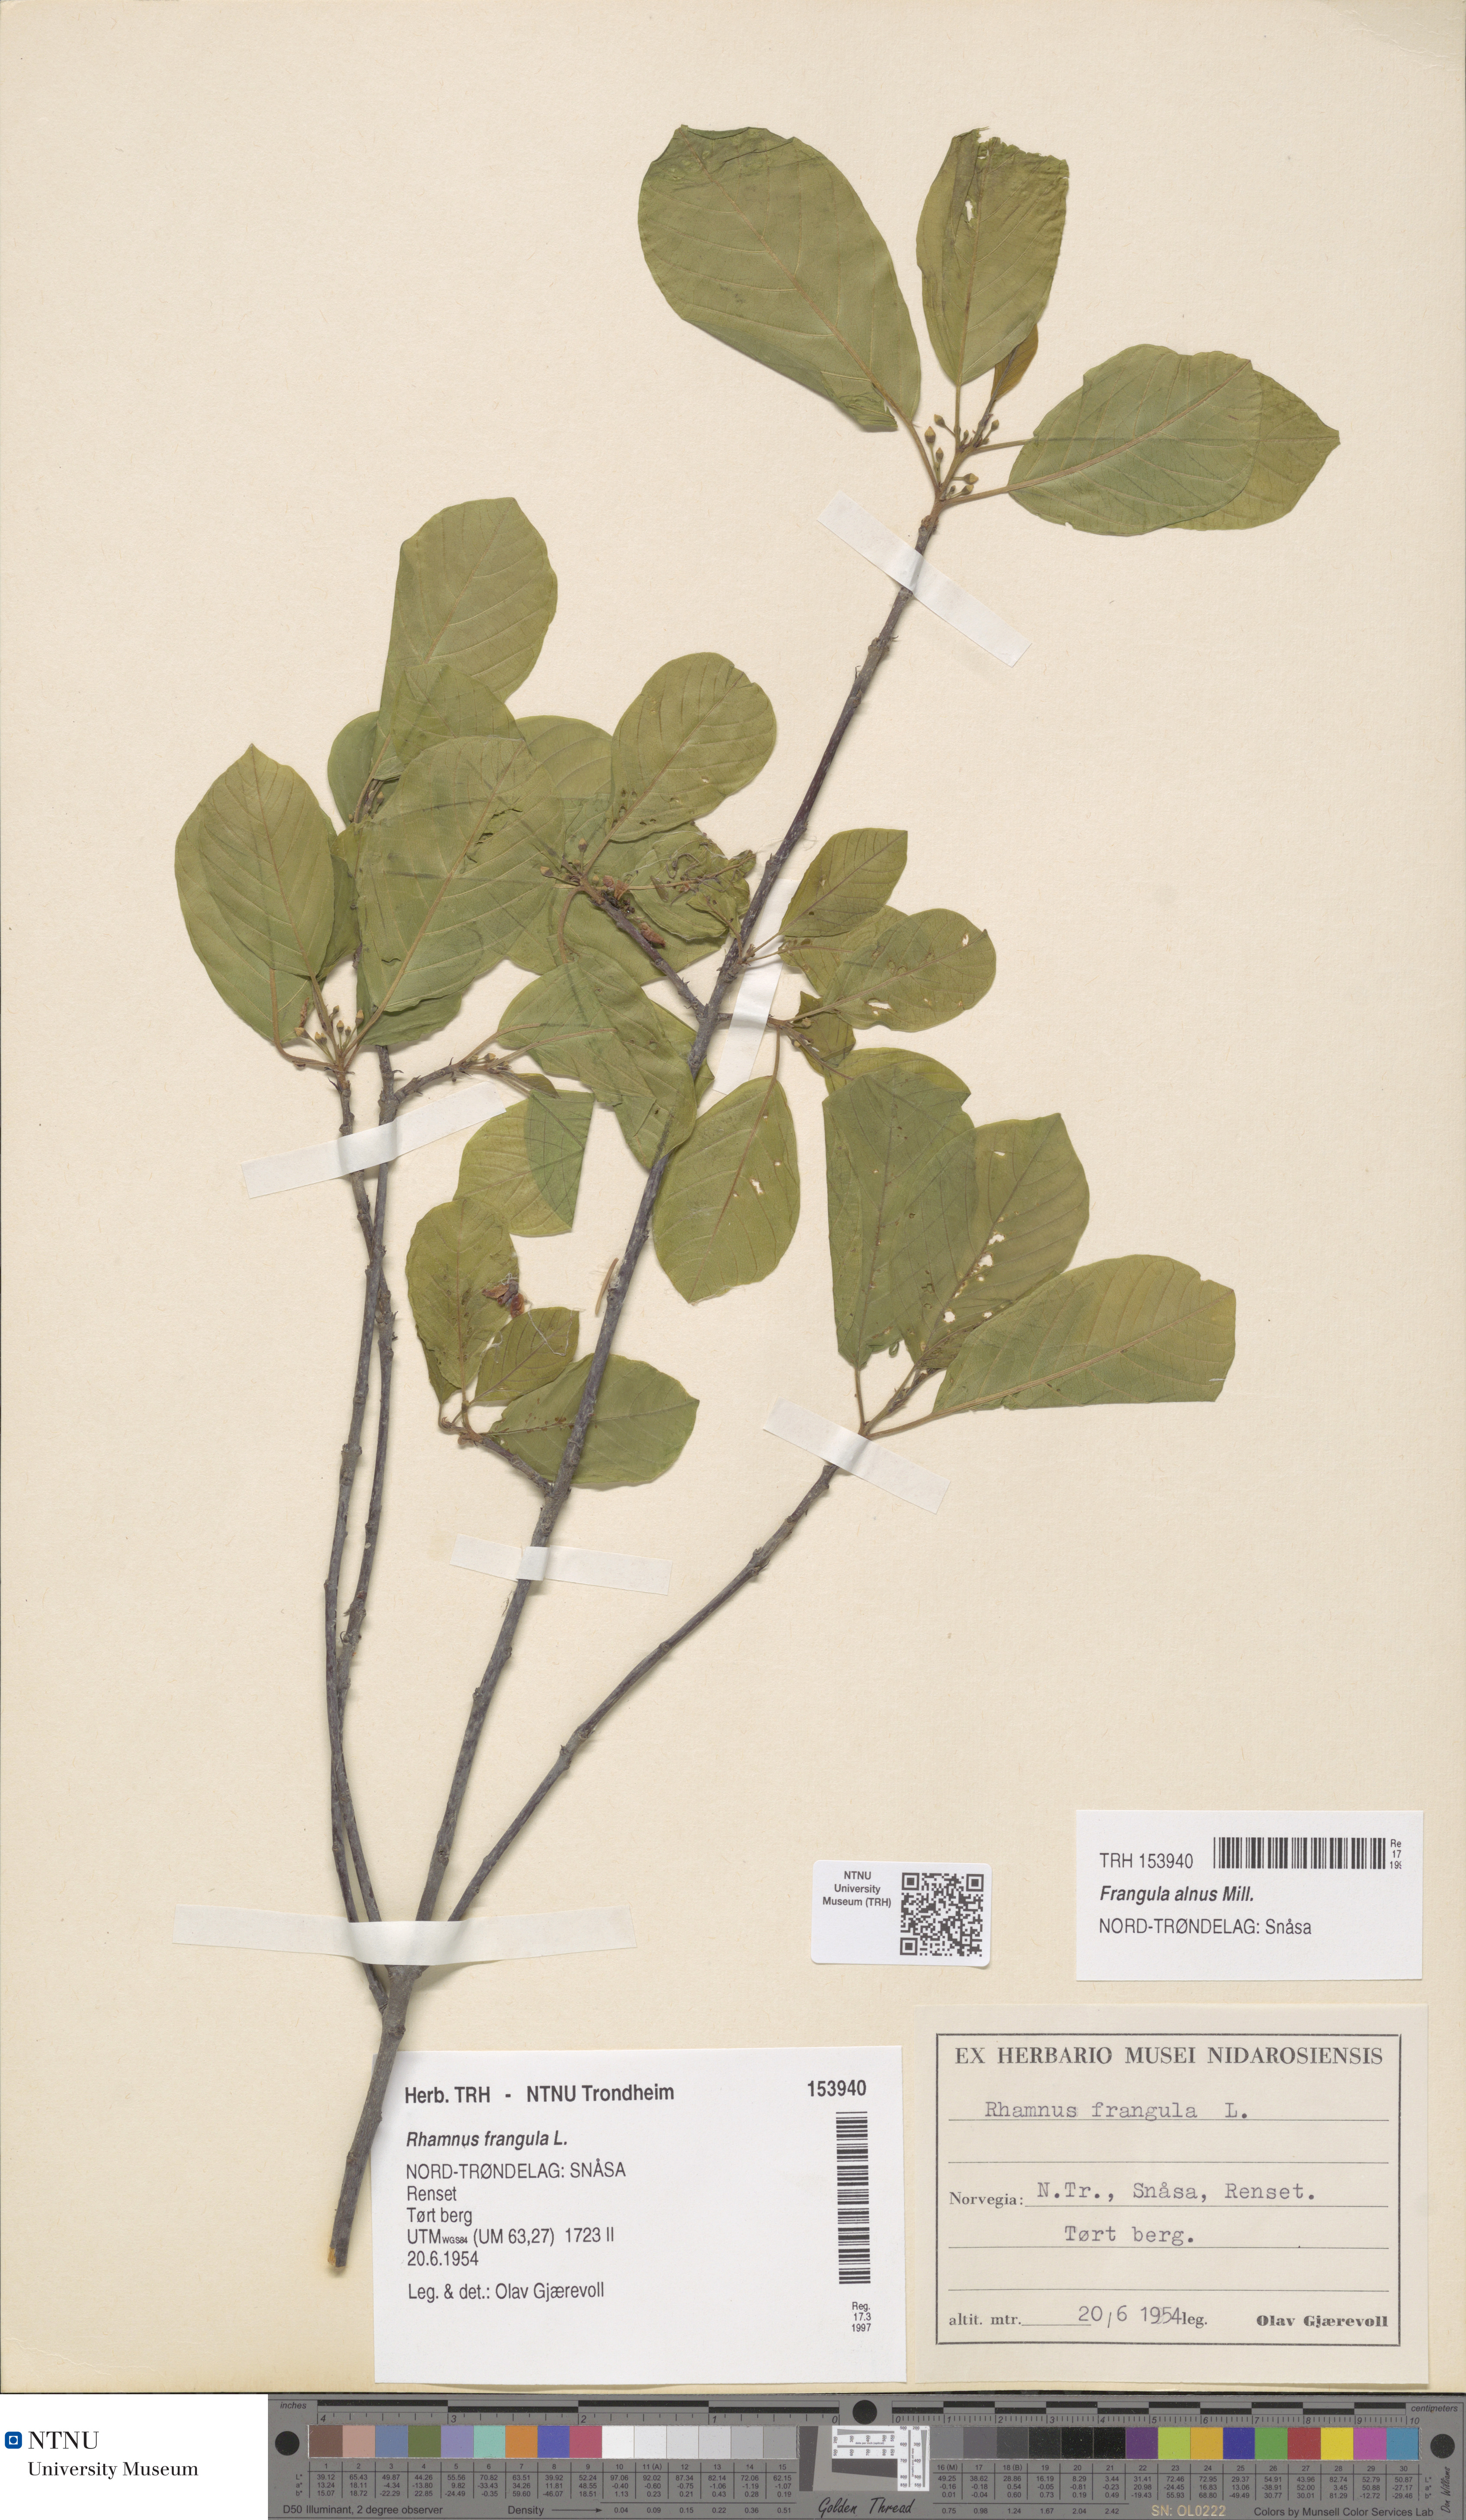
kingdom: Plantae
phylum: Tracheophyta
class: Magnoliopsida
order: Rosales
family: Rhamnaceae
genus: Frangula
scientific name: Frangula alnus
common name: Alder buckthorn
